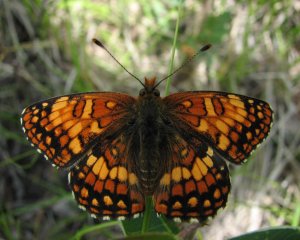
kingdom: Animalia
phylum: Arthropoda
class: Insecta
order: Lepidoptera
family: Nymphalidae
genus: Chlosyne
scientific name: Chlosyne palla
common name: Northern Checkerspot
